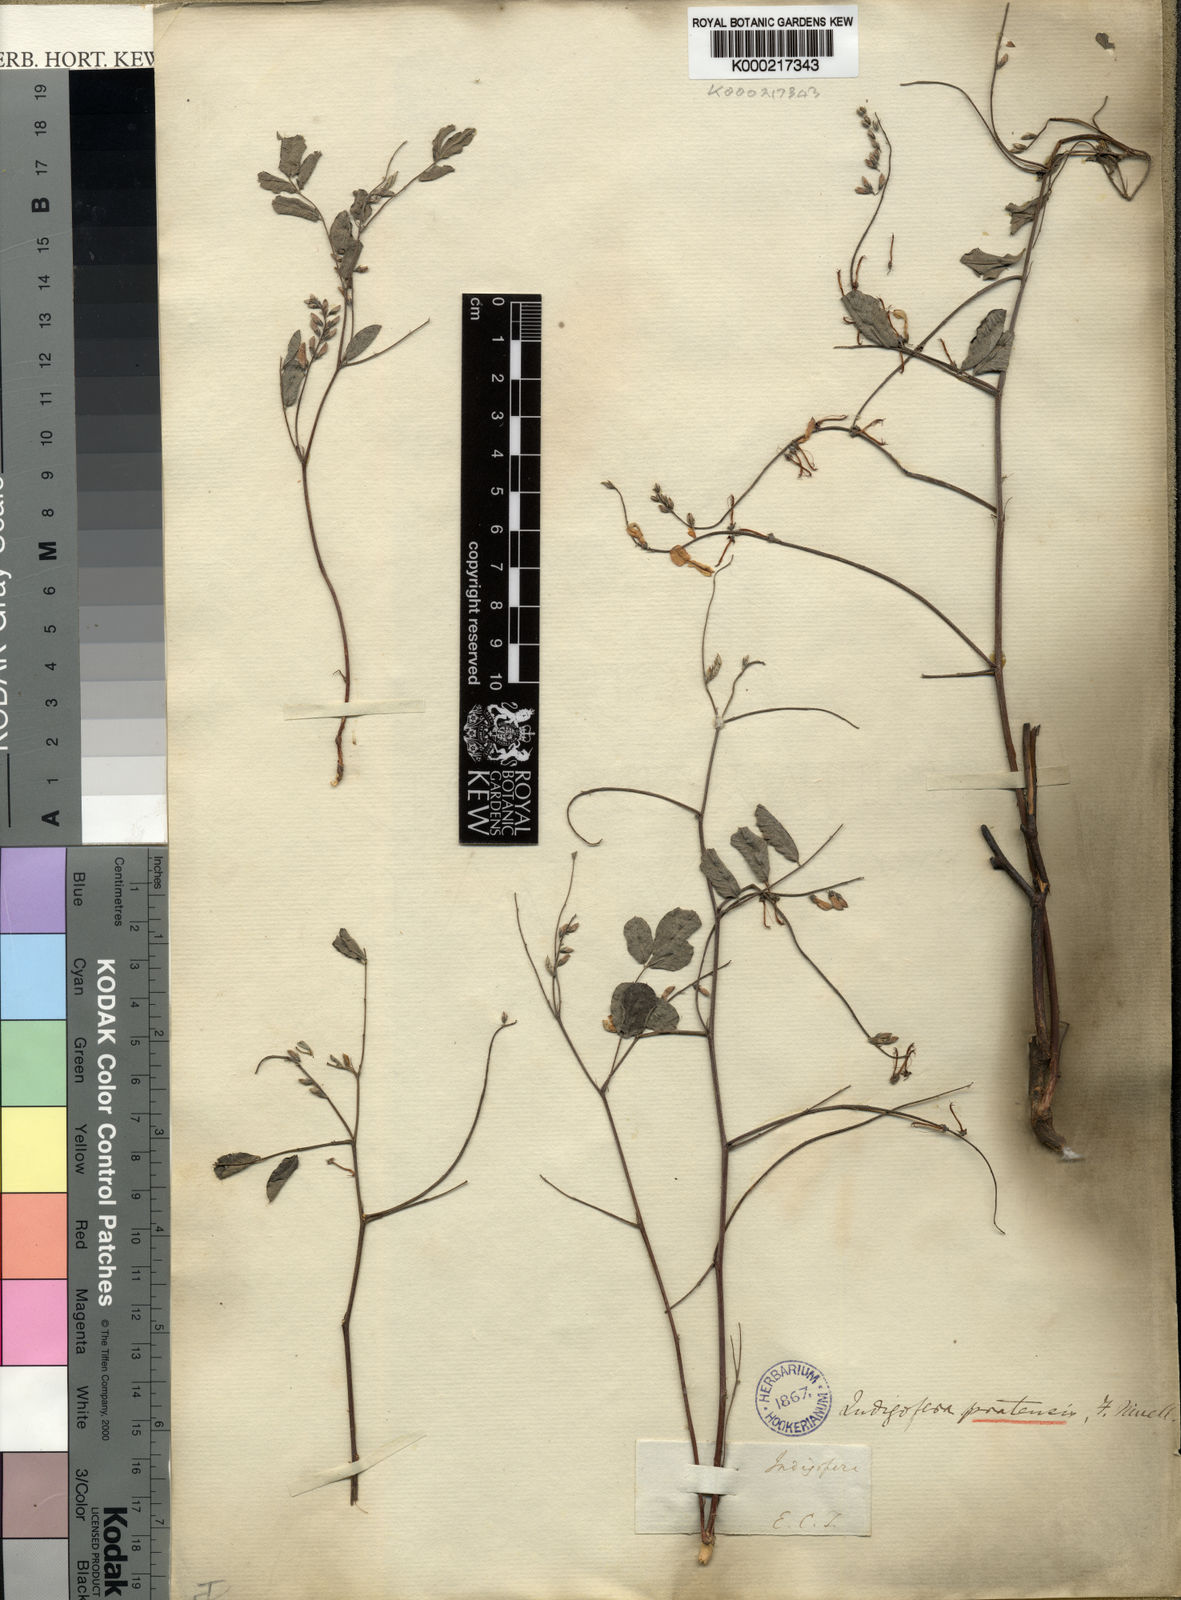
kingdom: Plantae
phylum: Tracheophyta
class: Magnoliopsida
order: Fabales
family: Fabaceae
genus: Indigofera
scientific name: Indigofera pratensis
